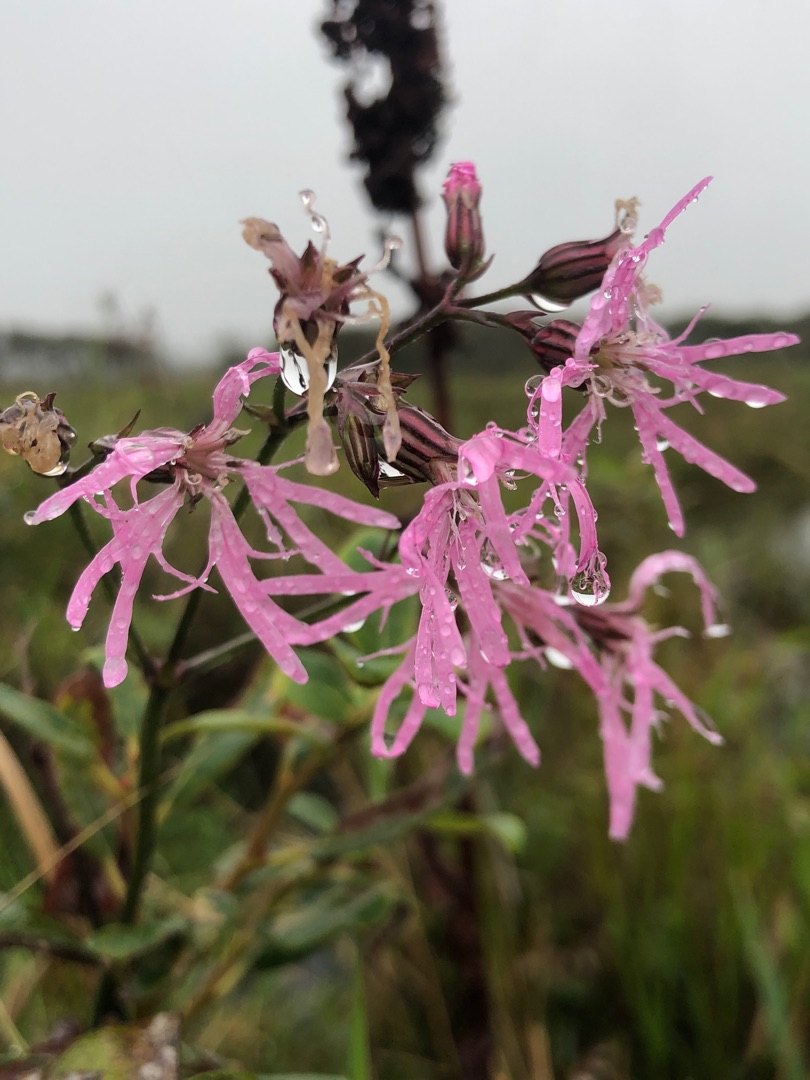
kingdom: Plantae
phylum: Tracheophyta
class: Magnoliopsida
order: Caryophyllales
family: Caryophyllaceae
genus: Silene
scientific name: Silene flos-cuculi
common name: Trævlekrone
